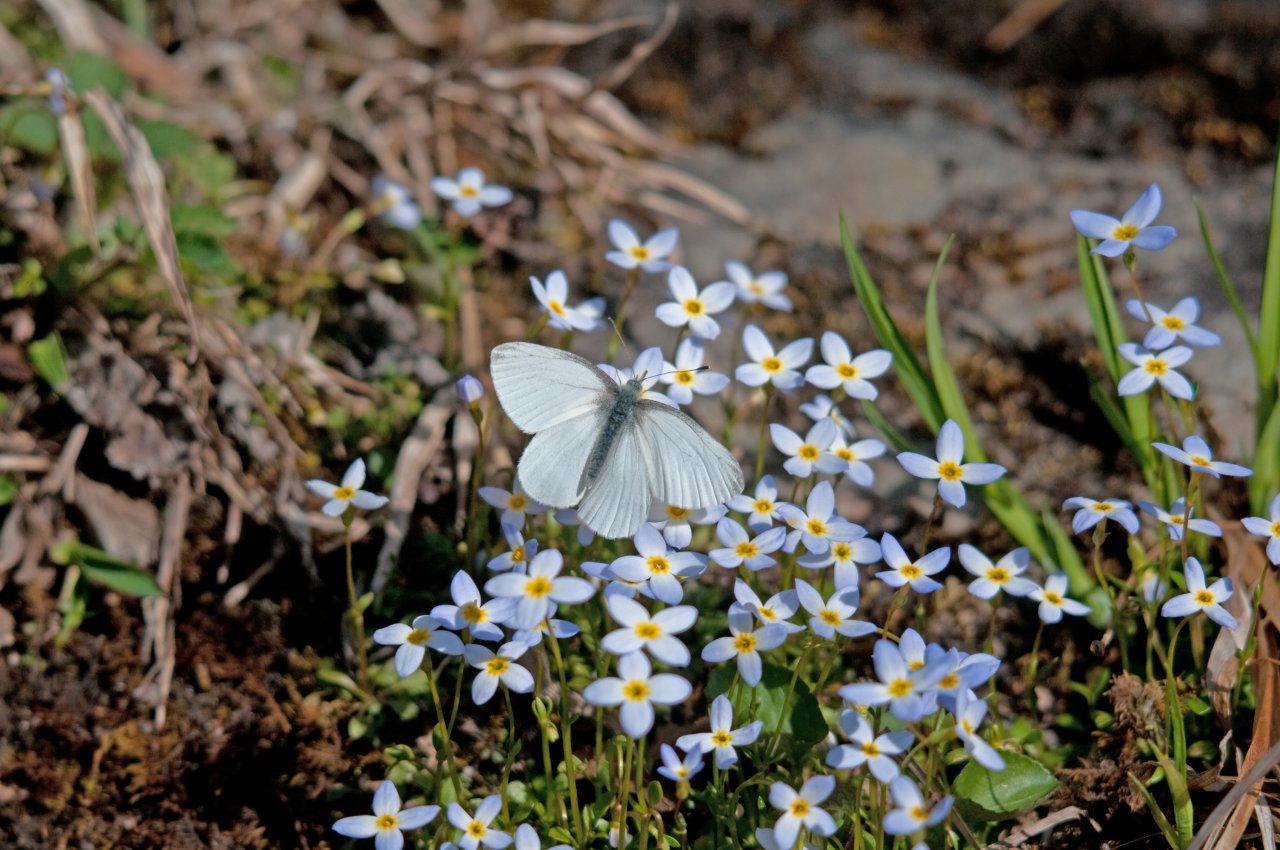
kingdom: Animalia
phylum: Arthropoda
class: Insecta
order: Lepidoptera
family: Pieridae
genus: Pieris
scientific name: Pieris virginiensis
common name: West Virginia White
